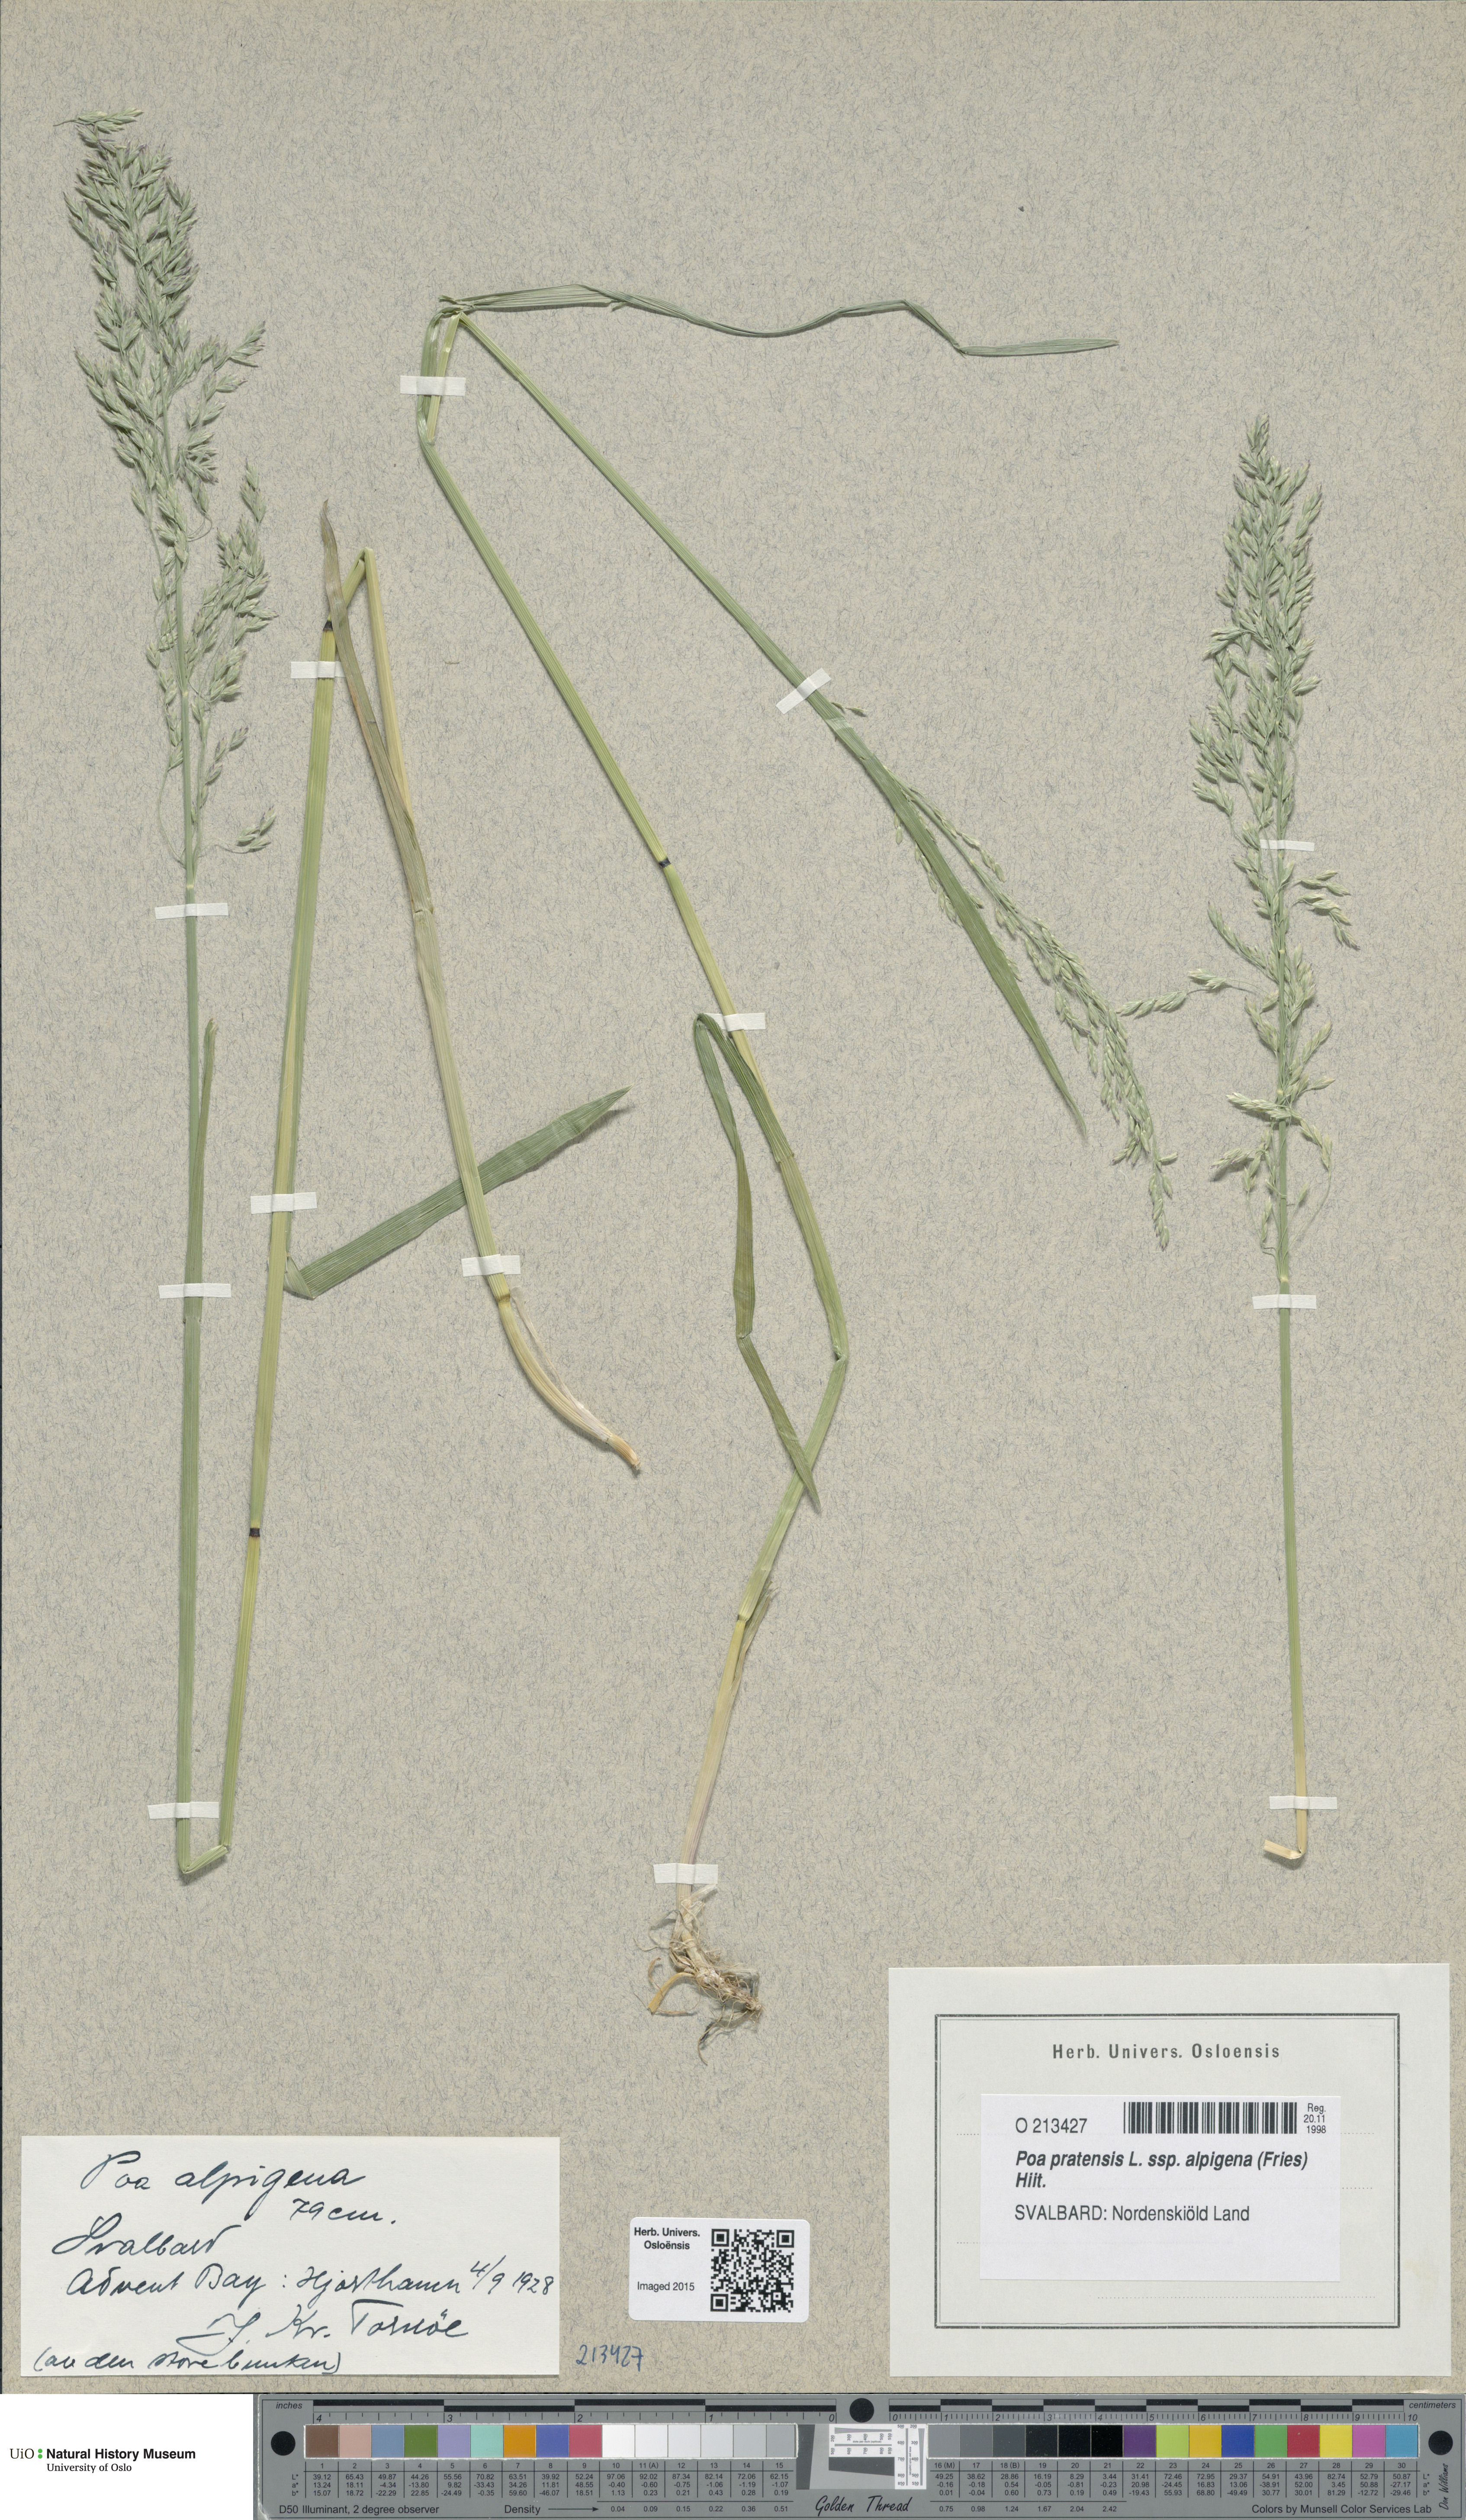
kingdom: Plantae
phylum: Tracheophyta
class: Liliopsida
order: Poales
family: Poaceae
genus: Poa
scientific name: Poa alpigena
